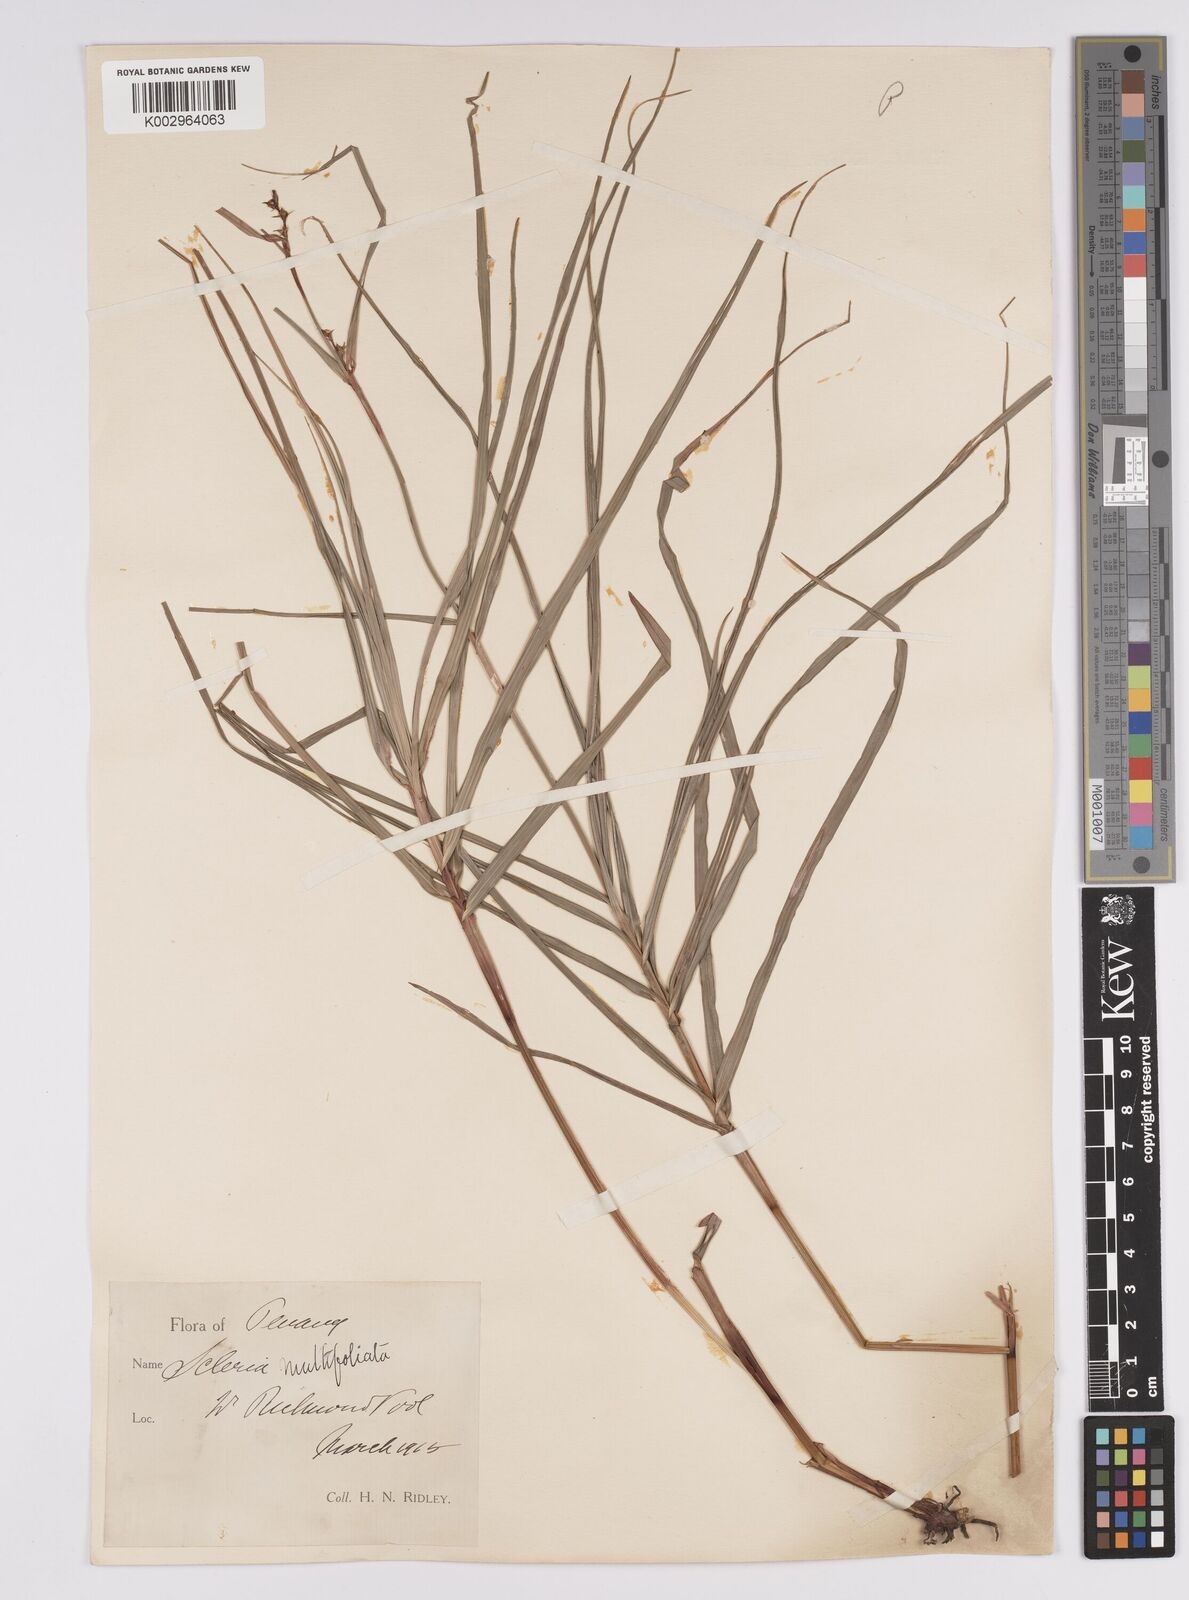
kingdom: Plantae
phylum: Tracheophyta
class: Liliopsida
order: Poales
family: Cyperaceae
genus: Scleria
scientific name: Scleria purpurascens
